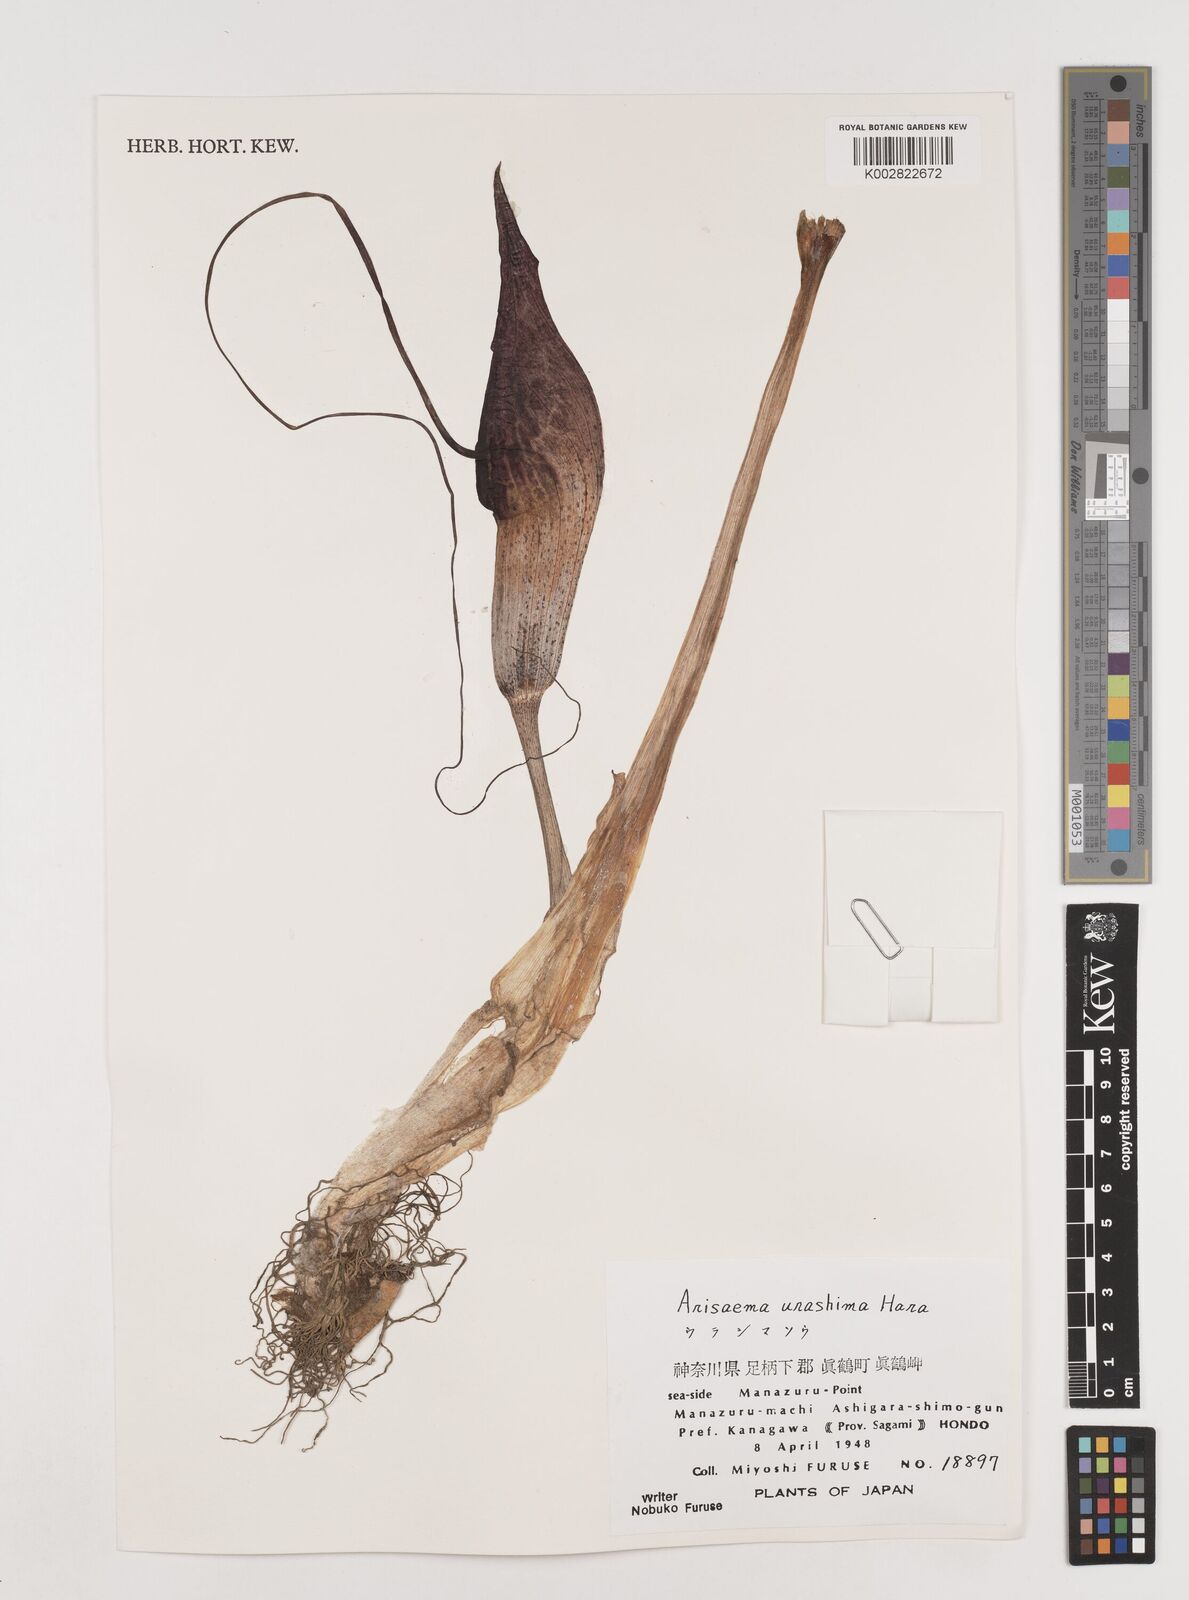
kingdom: Plantae
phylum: Tracheophyta
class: Liliopsida
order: Alismatales
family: Araceae
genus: Arisaema
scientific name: Arisaema
